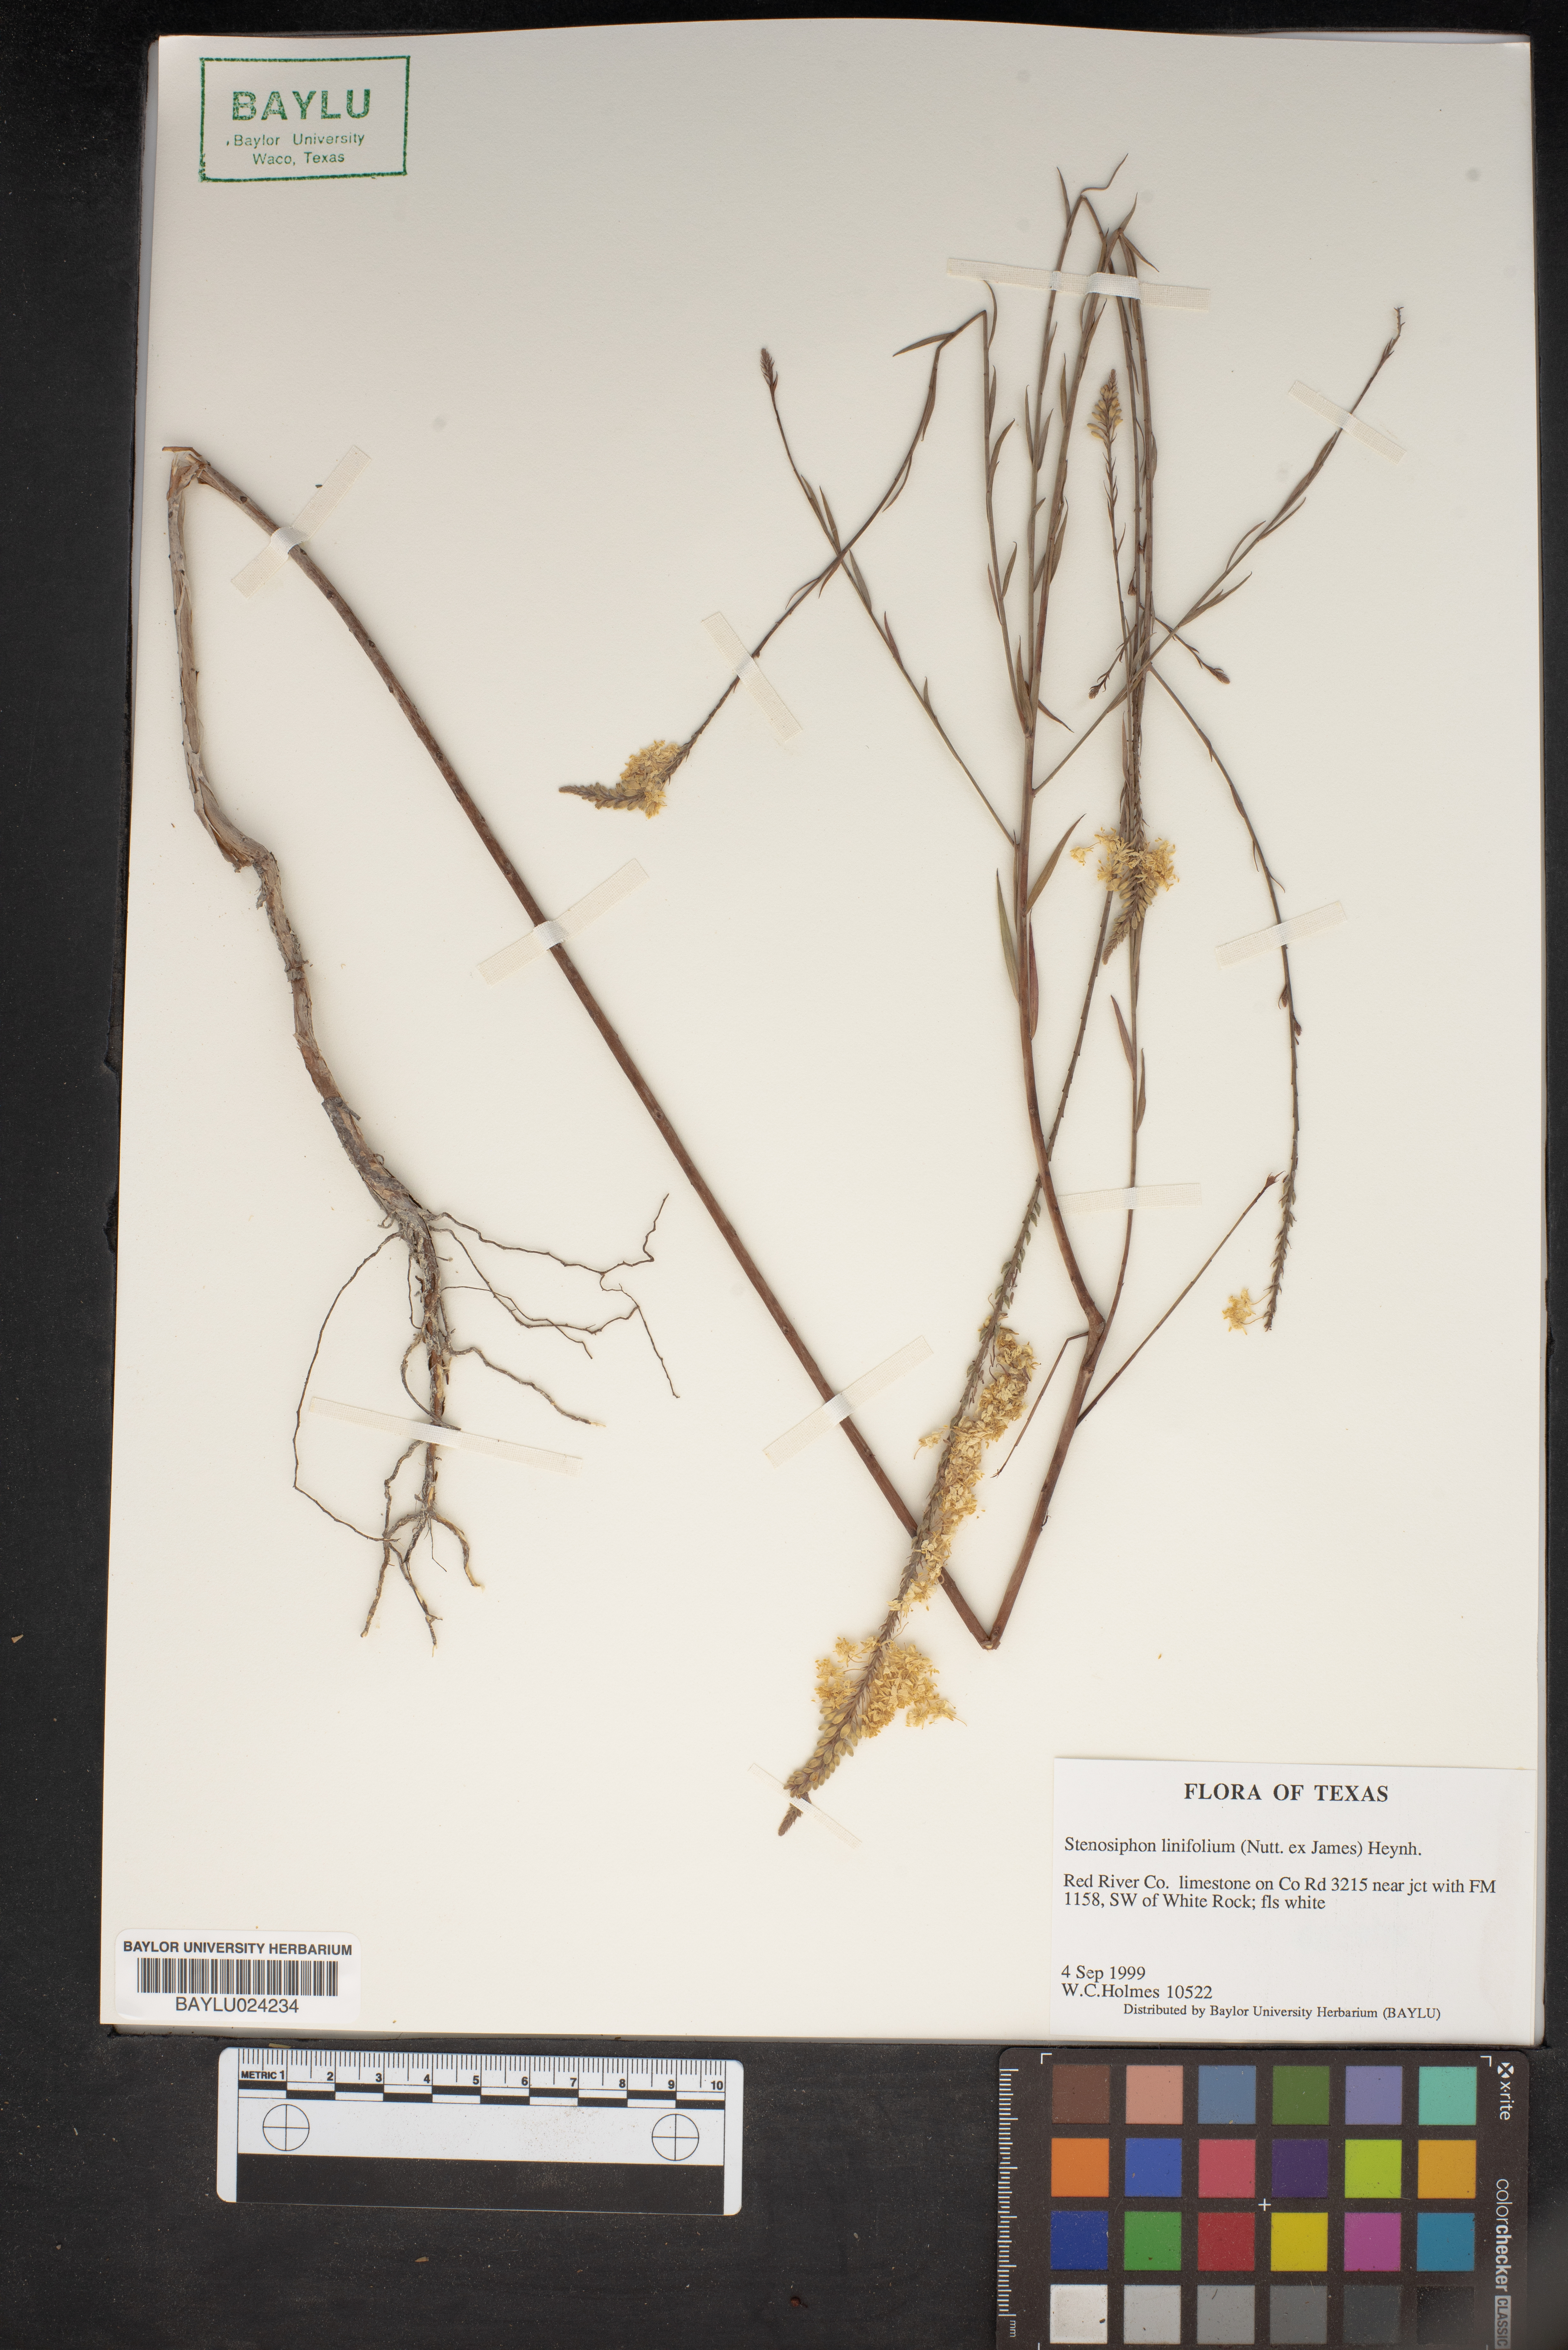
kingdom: Plantae
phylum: Tracheophyta
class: Magnoliopsida
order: Myrtales
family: Onagraceae
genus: Oenothera
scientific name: Oenothera glaucifolia
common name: False gaura
